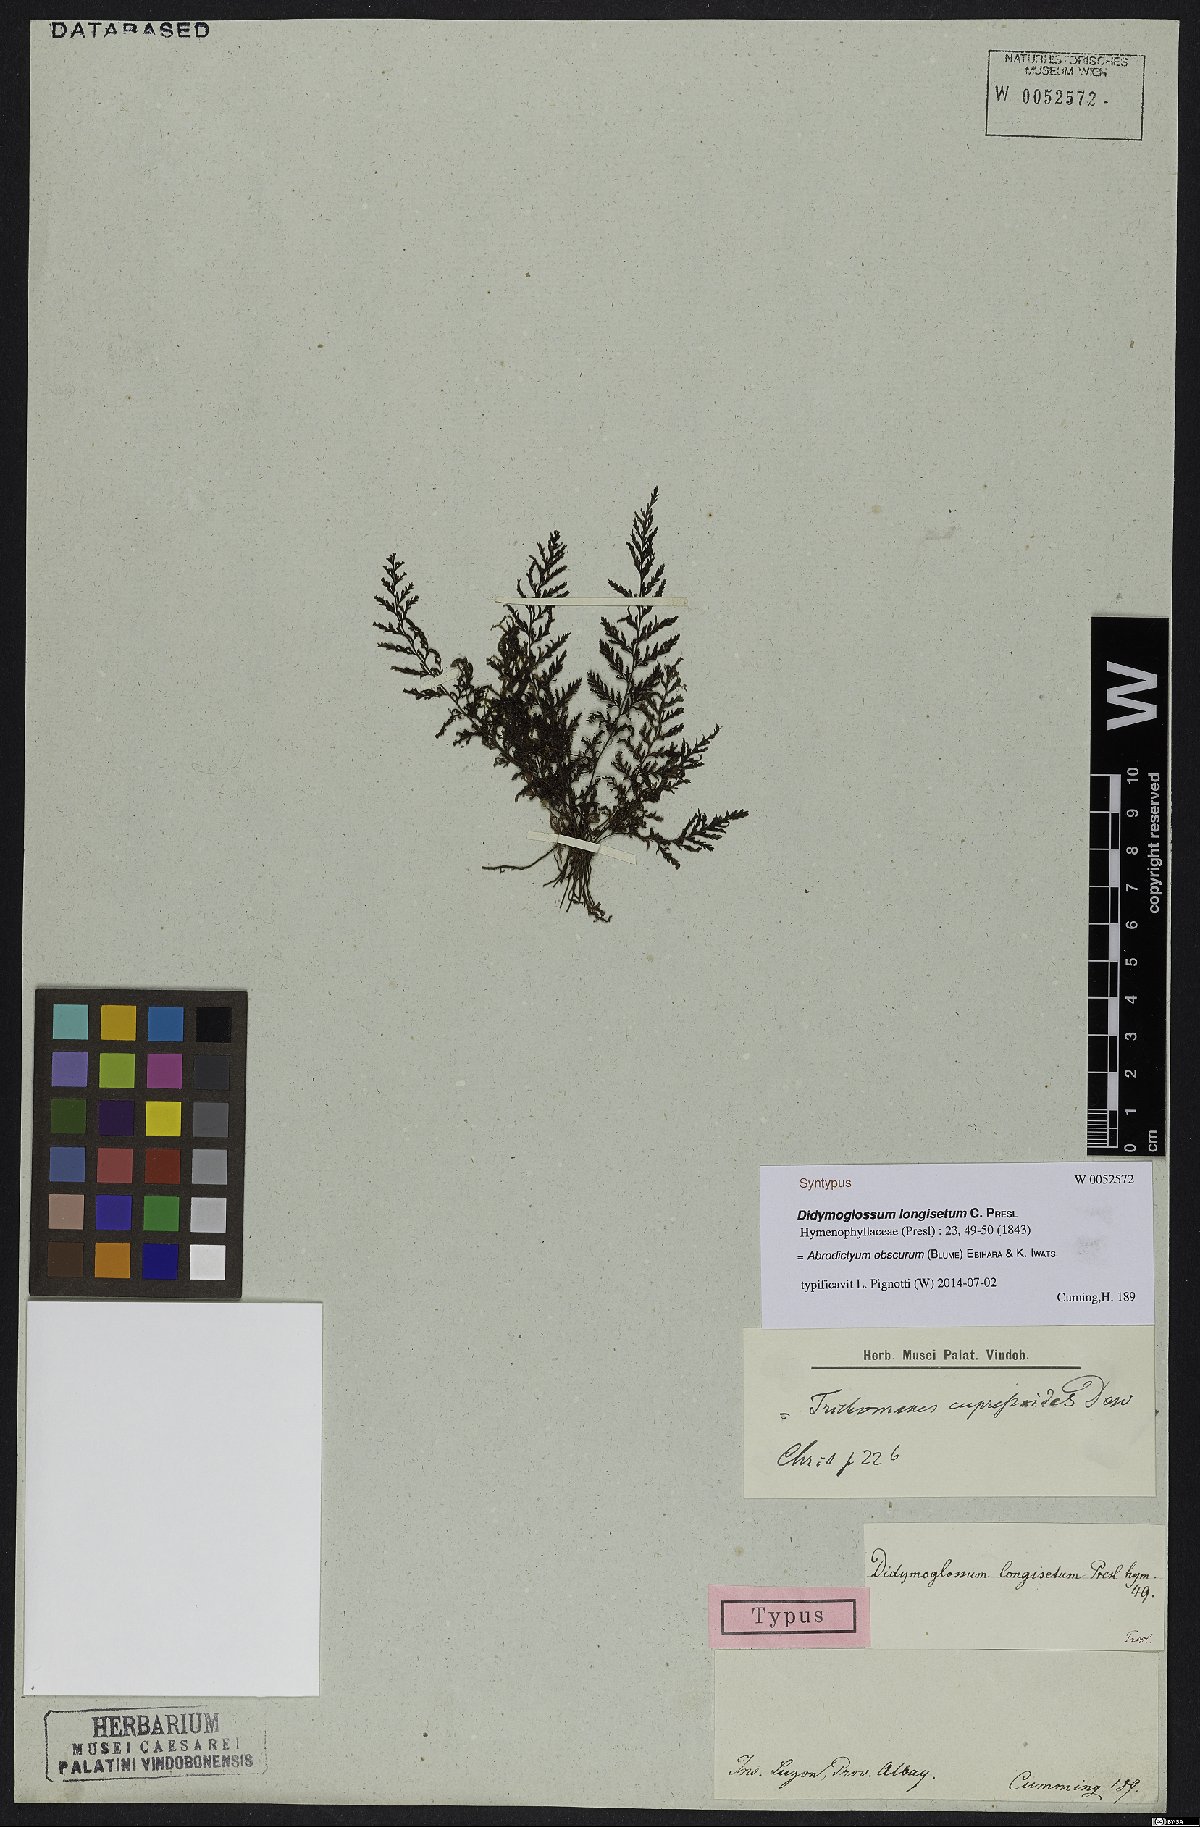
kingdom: Plantae
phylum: Tracheophyta
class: Polypodiopsida
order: Hymenophyllales
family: Hymenophyllaceae
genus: Abrodictyum
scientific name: Abrodictyum obscurum
